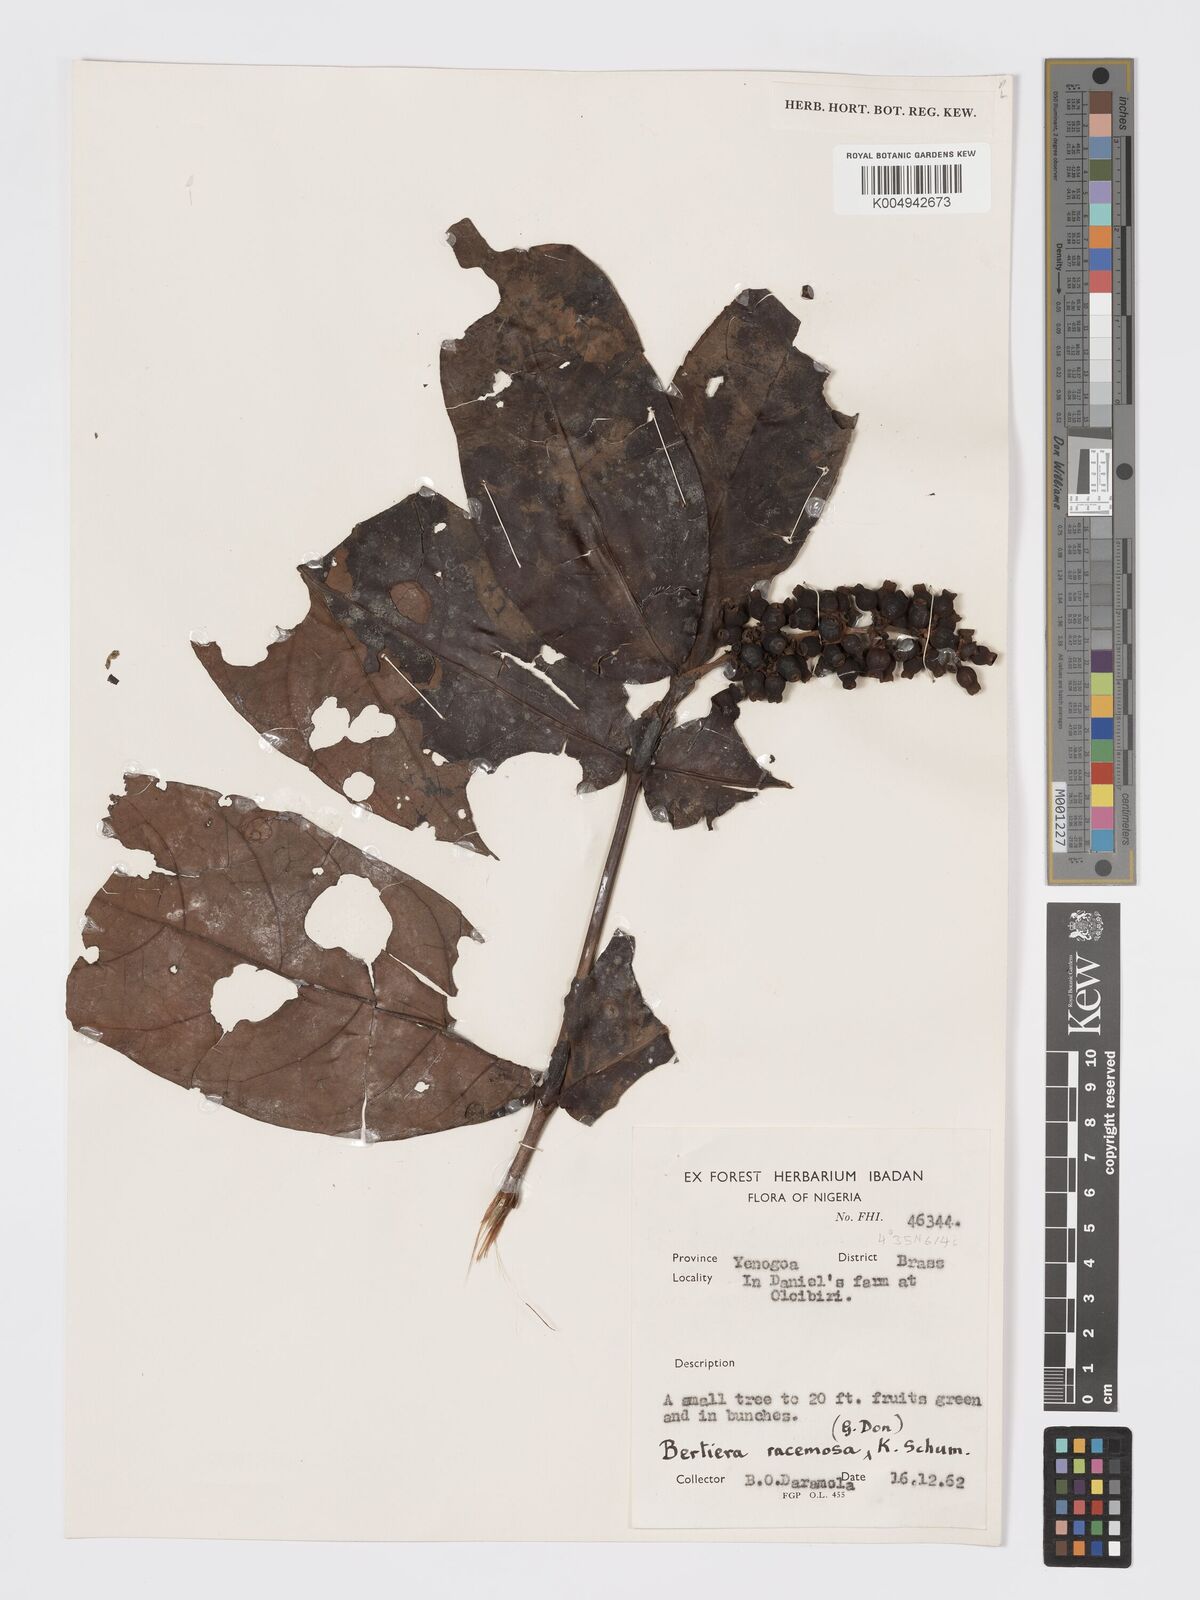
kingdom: Plantae
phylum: Tracheophyta
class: Magnoliopsida
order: Gentianales
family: Rubiaceae
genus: Bertiera
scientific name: Bertiera racemosa
